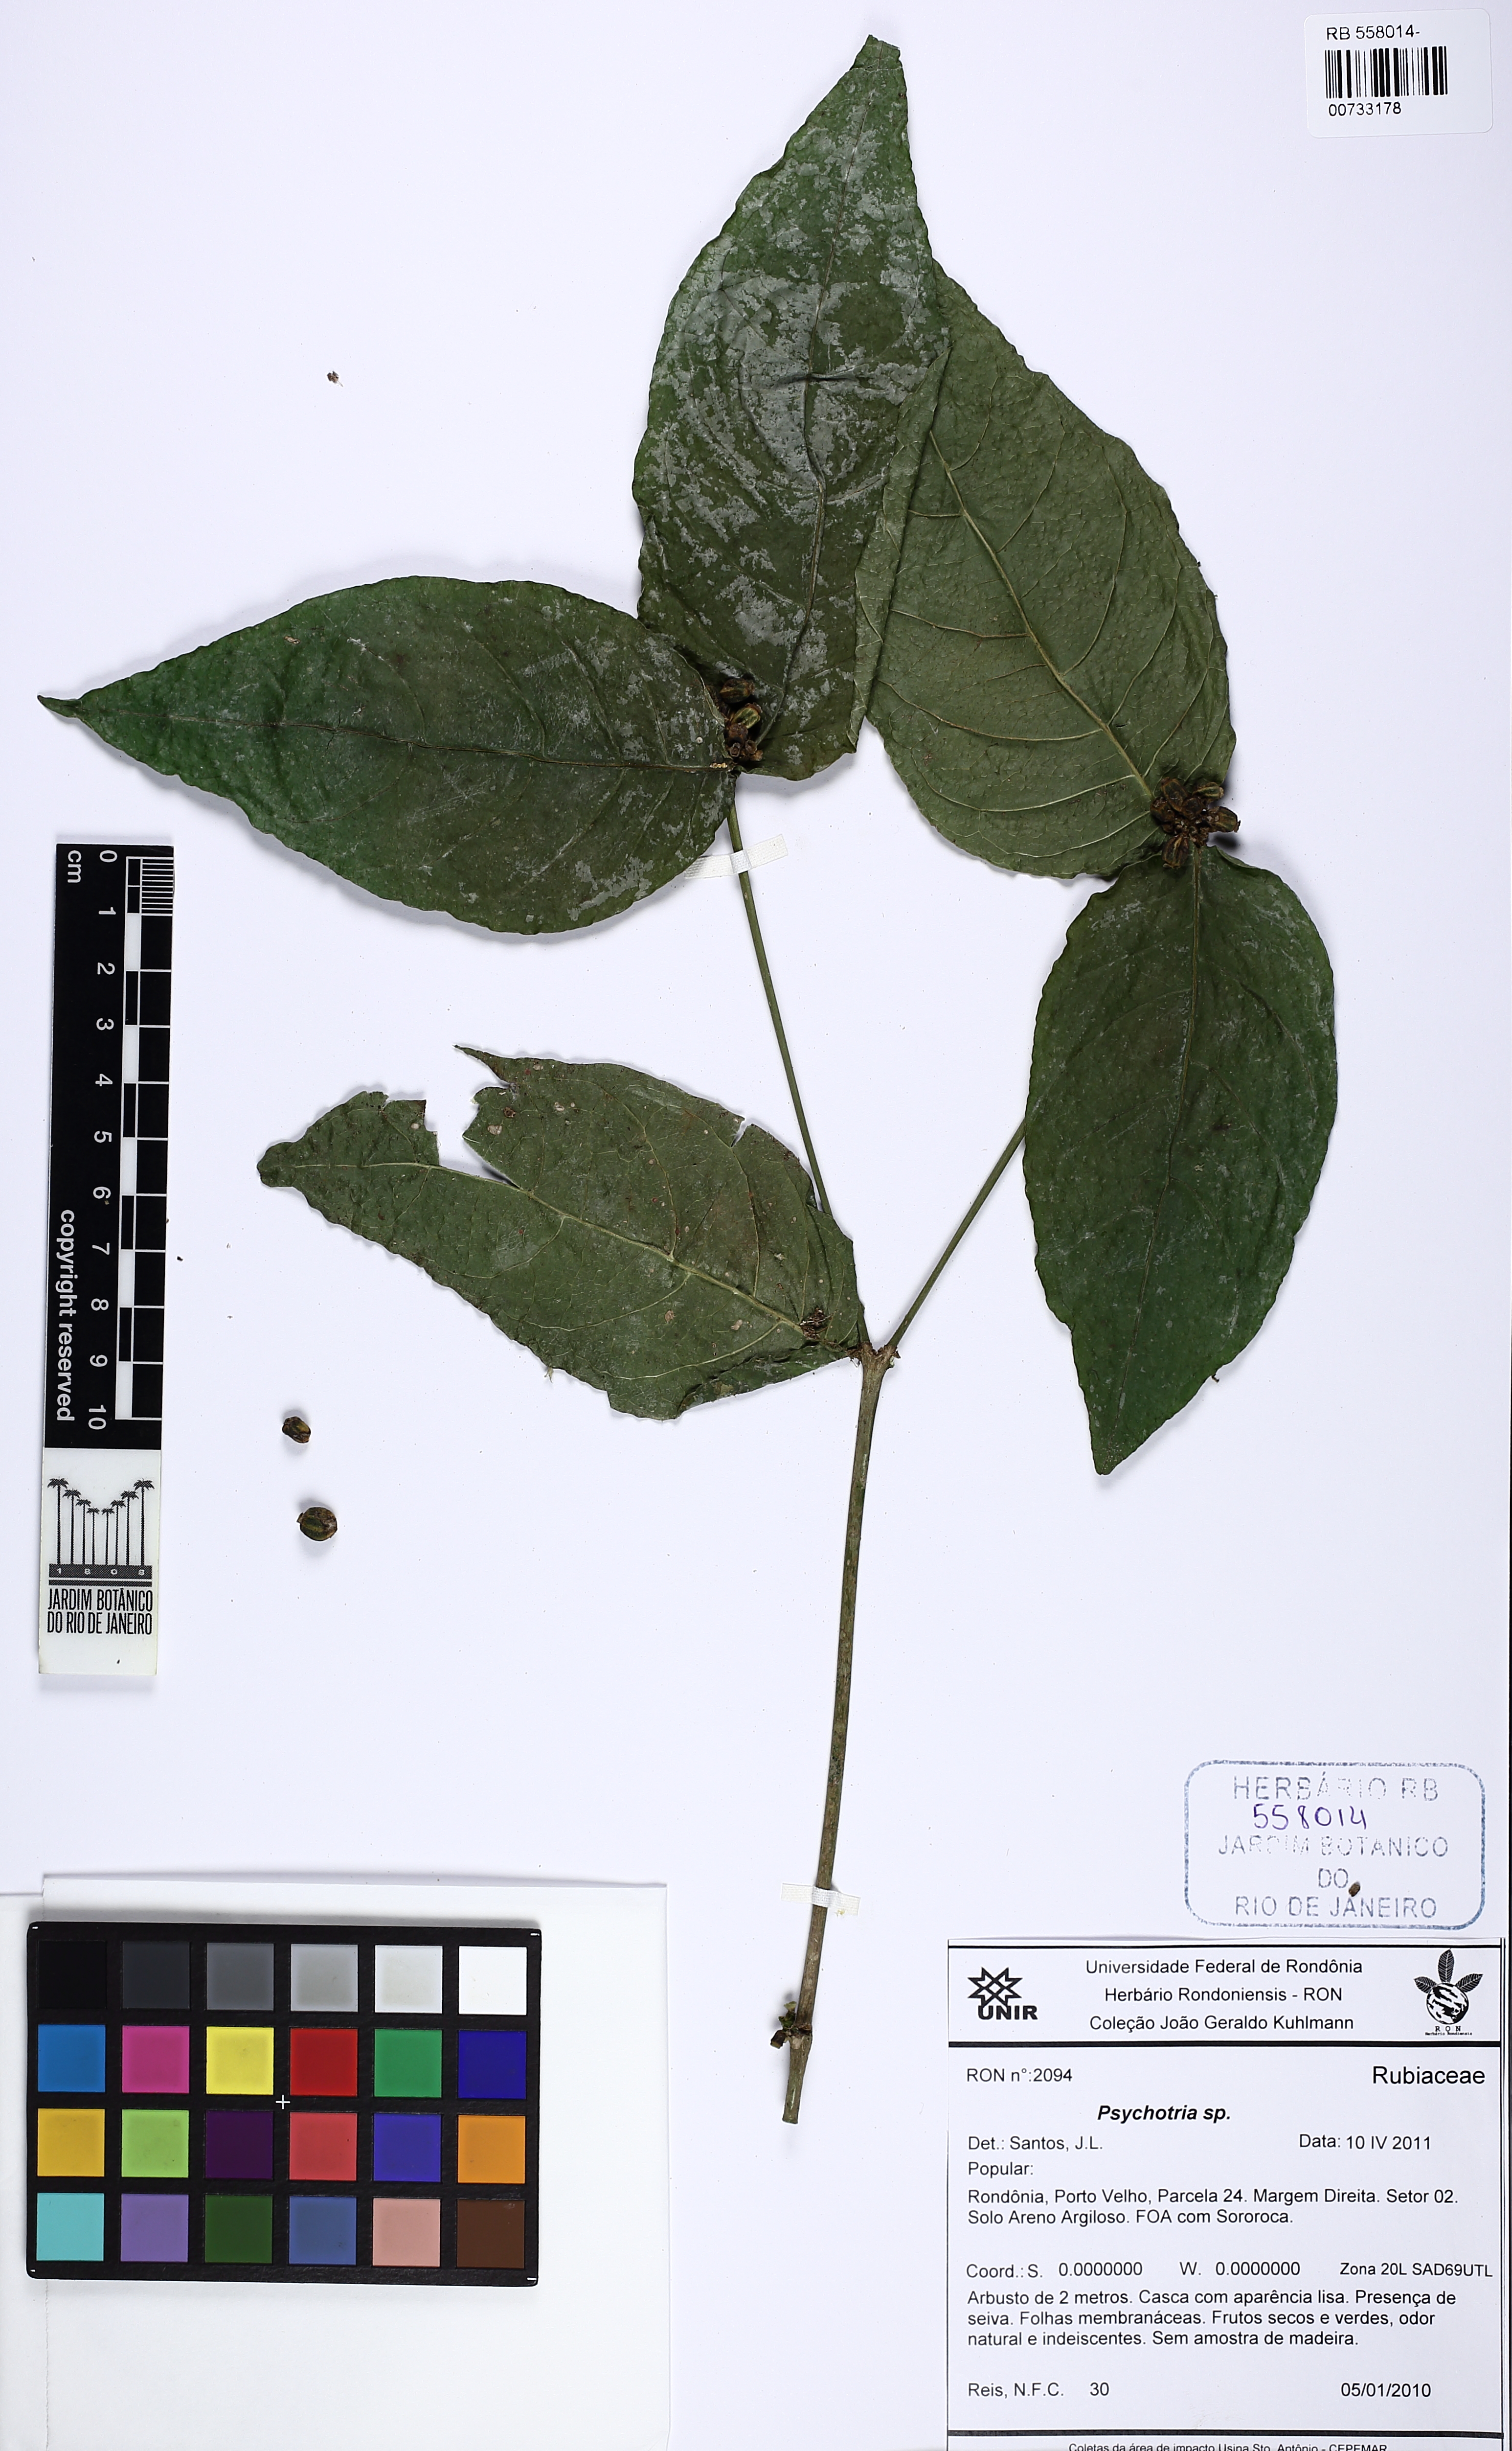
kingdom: Plantae
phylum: Tracheophyta
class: Magnoliopsida
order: Gentianales
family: Rubiaceae
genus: Rudgea
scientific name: Rudgea
